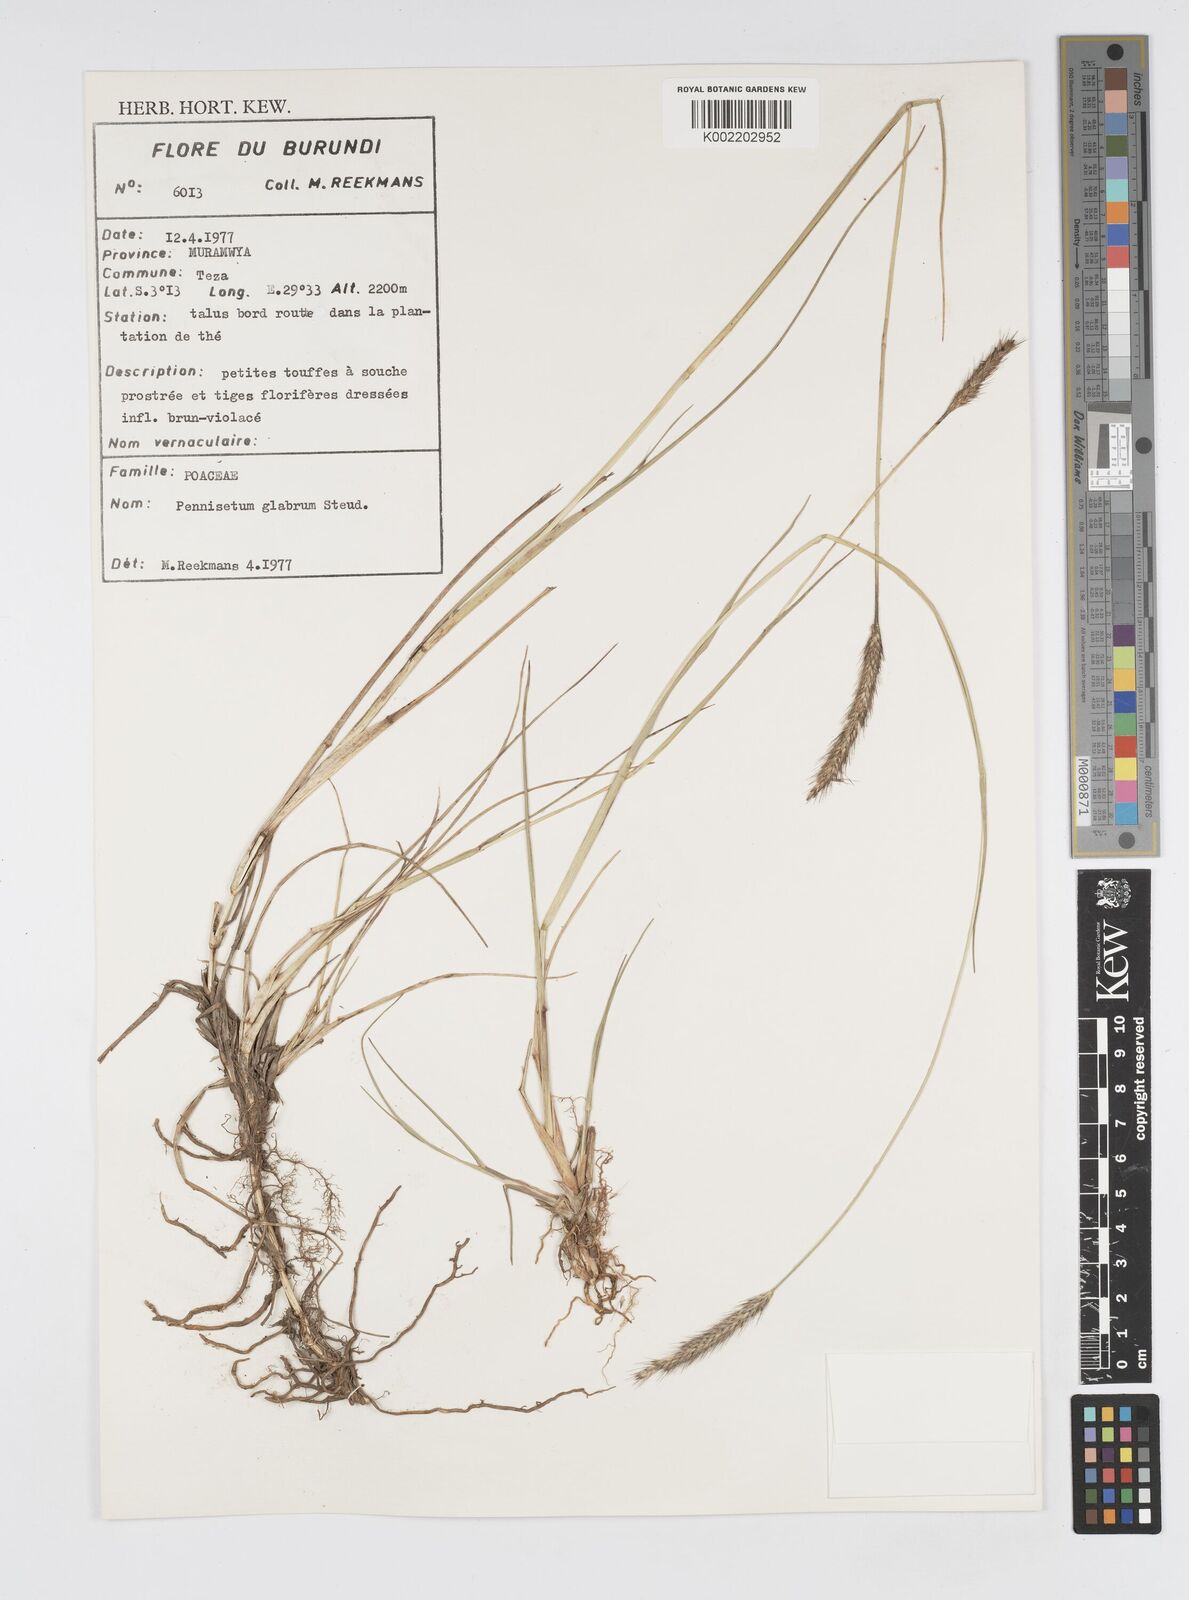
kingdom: Plantae
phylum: Tracheophyta
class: Liliopsida
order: Poales
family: Poaceae
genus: Cenchrus
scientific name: Cenchrus geniculatus
